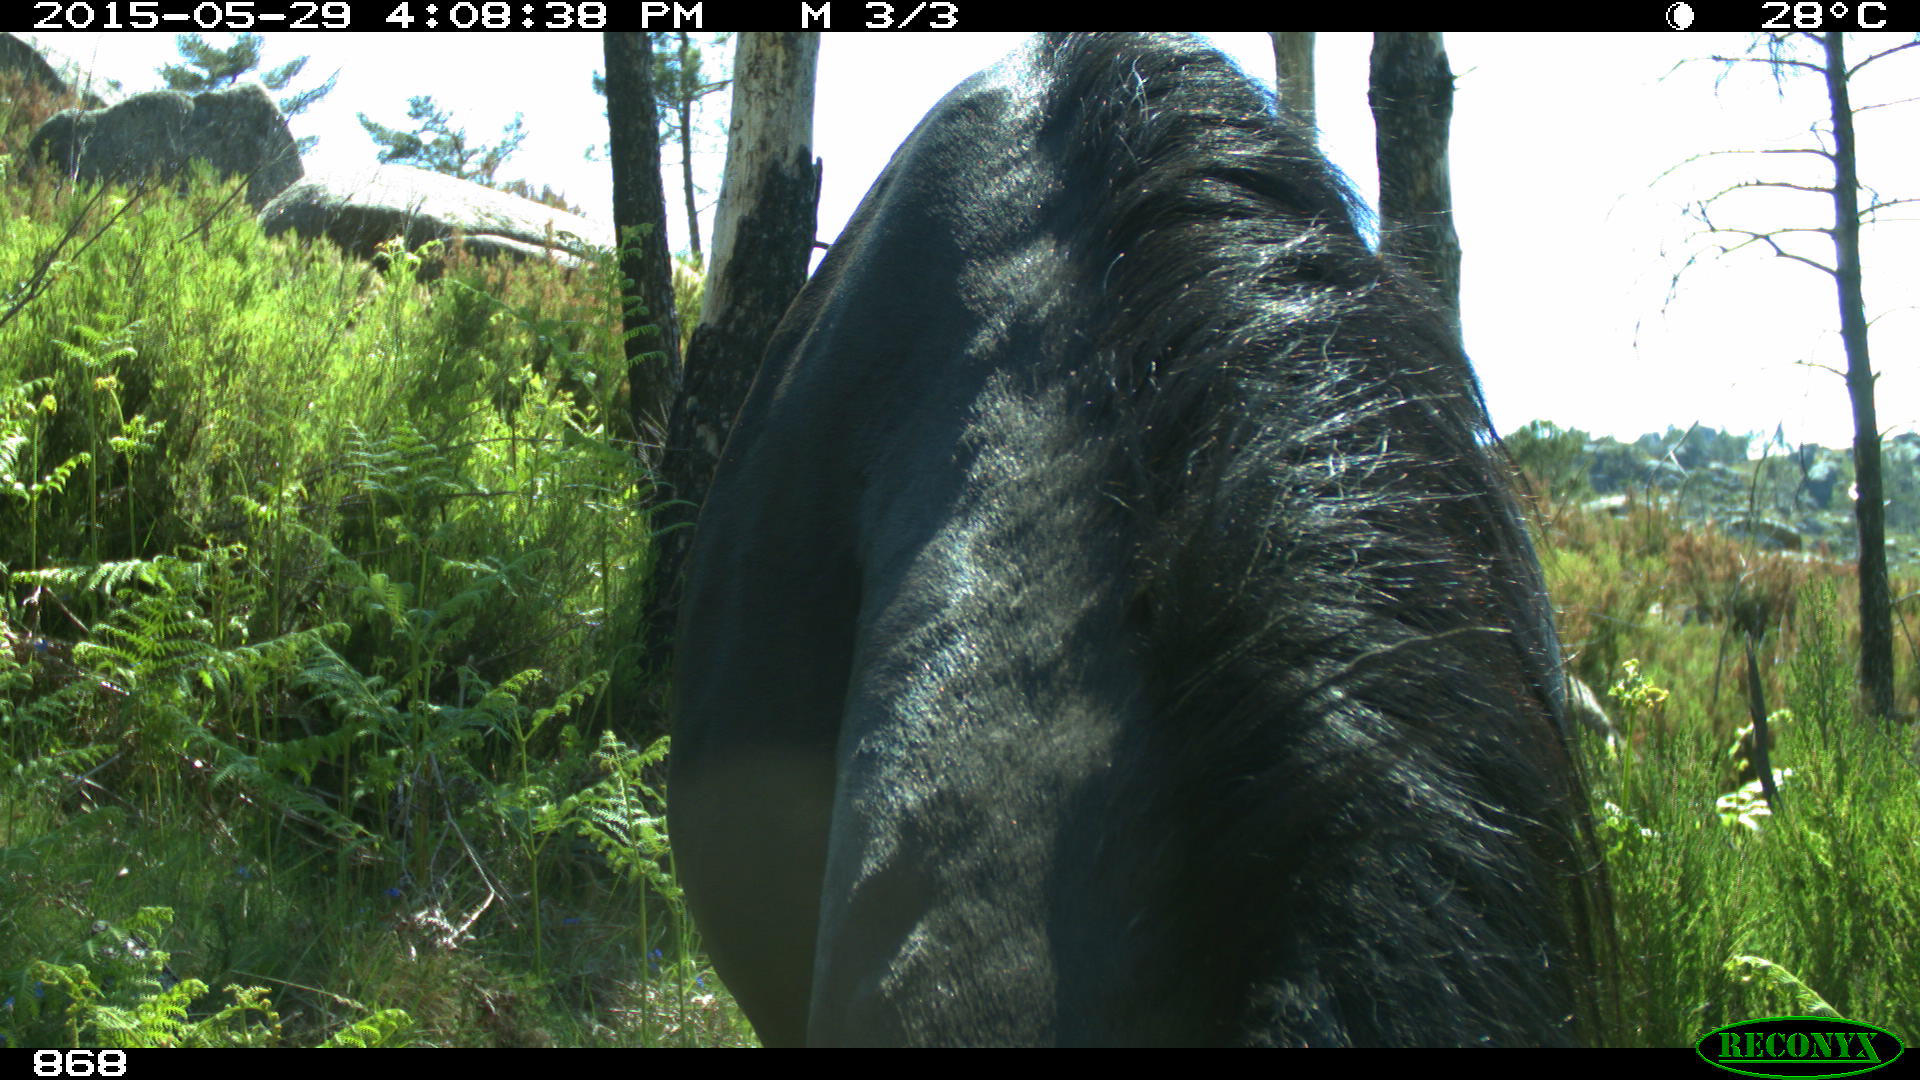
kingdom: Animalia
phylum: Chordata
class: Mammalia
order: Perissodactyla
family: Equidae
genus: Equus
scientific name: Equus caballus
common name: Horse
